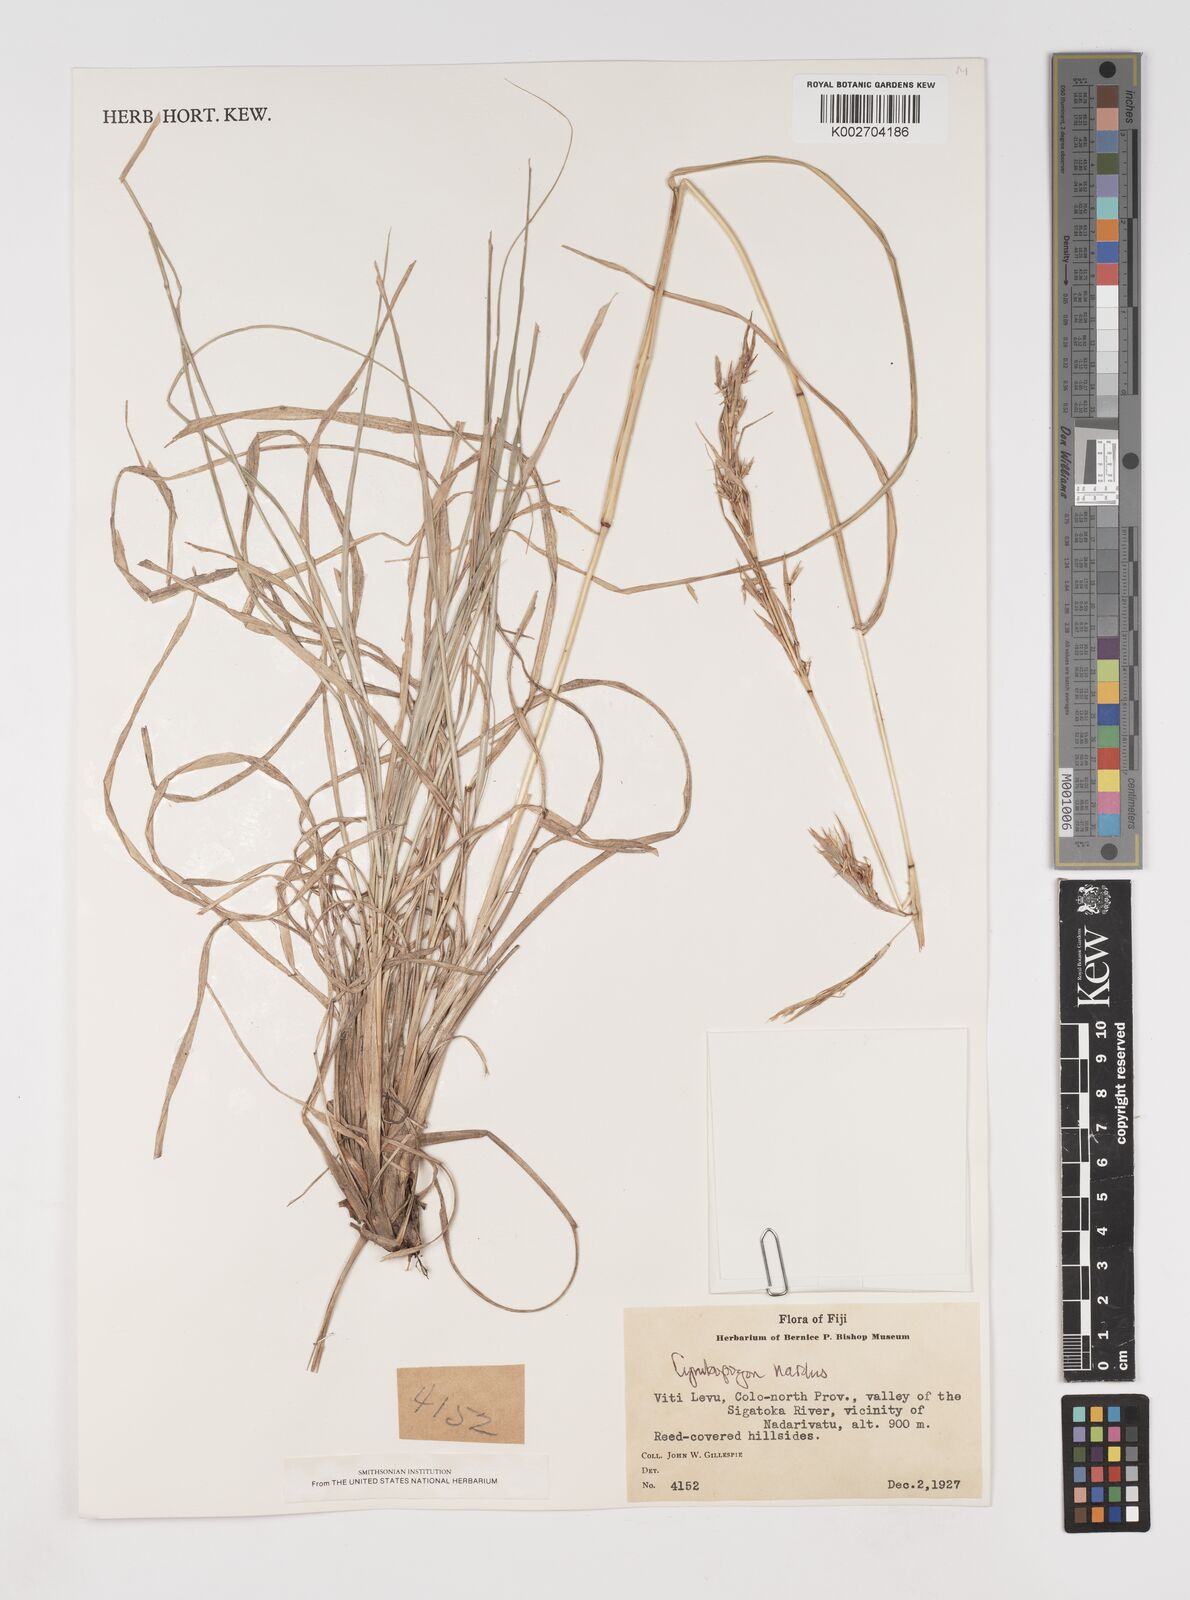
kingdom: Plantae
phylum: Tracheophyta
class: Liliopsida
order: Poales
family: Poaceae
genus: Cymbopogon
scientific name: Cymbopogon coloratus
